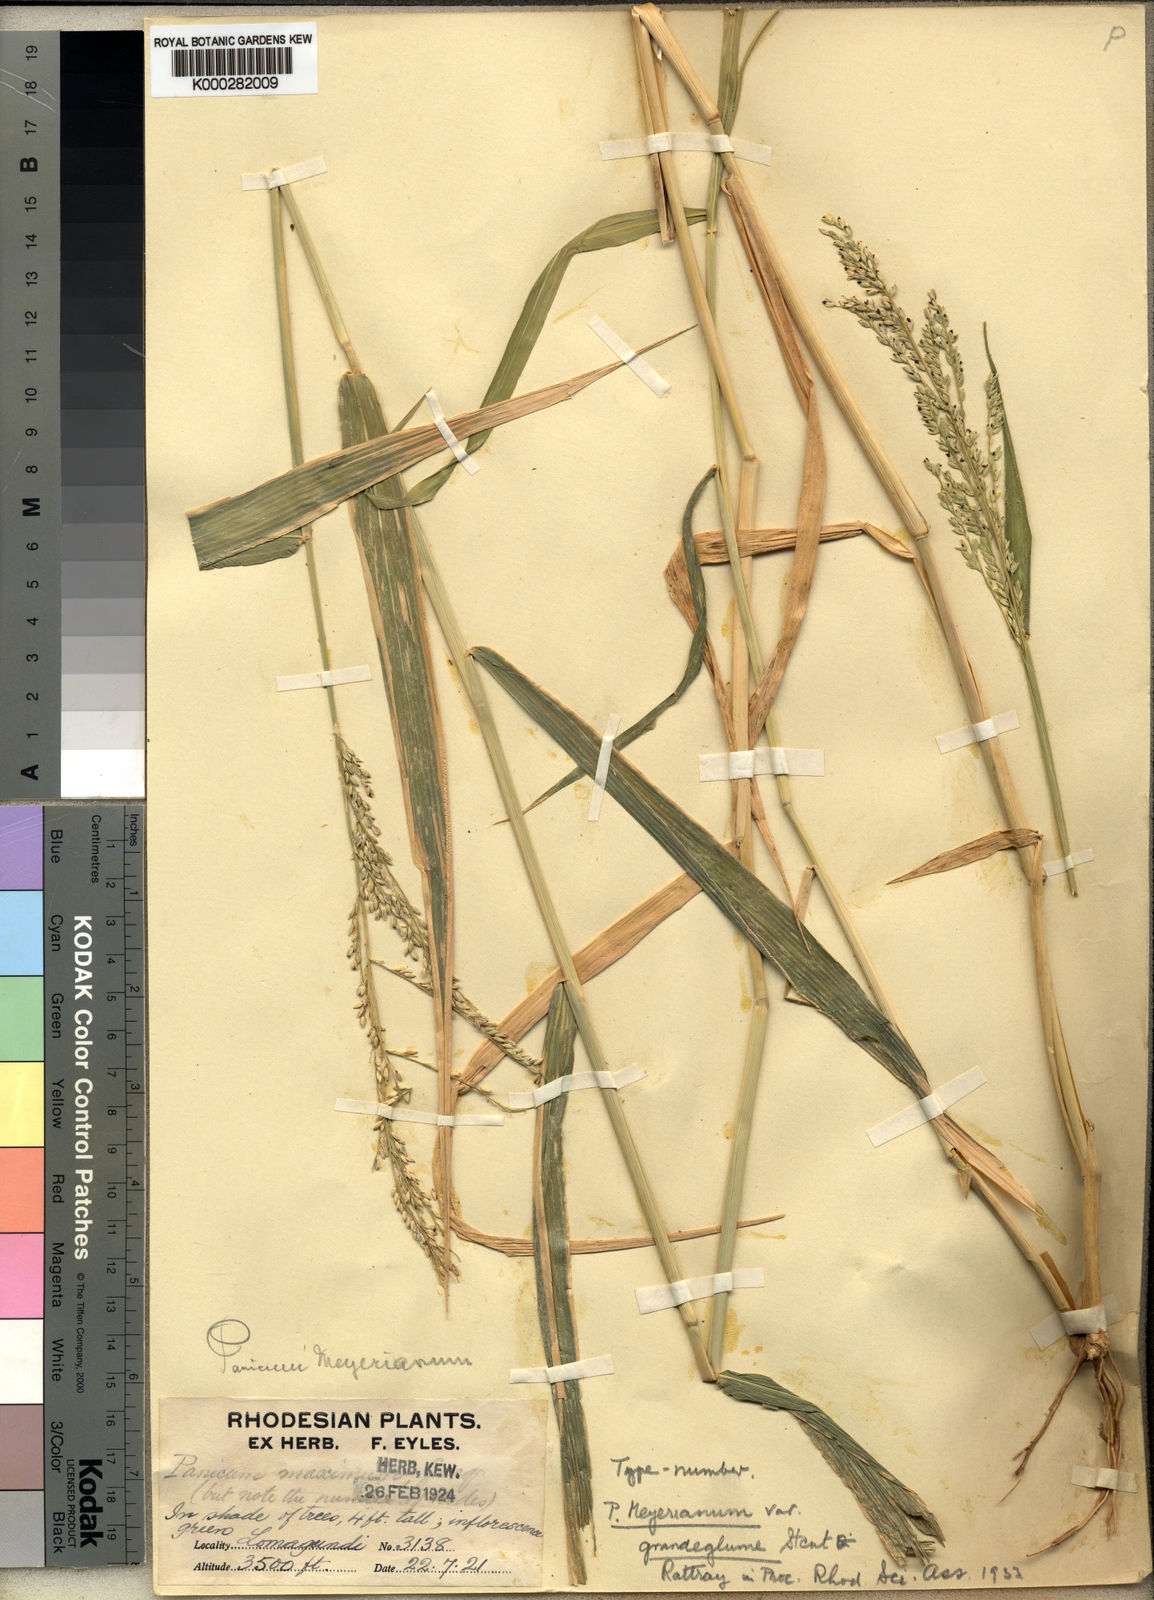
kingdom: Plantae
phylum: Tracheophyta
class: Liliopsida
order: Poales
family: Poaceae
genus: Eriochloa
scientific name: Eriochloa meyeriana
